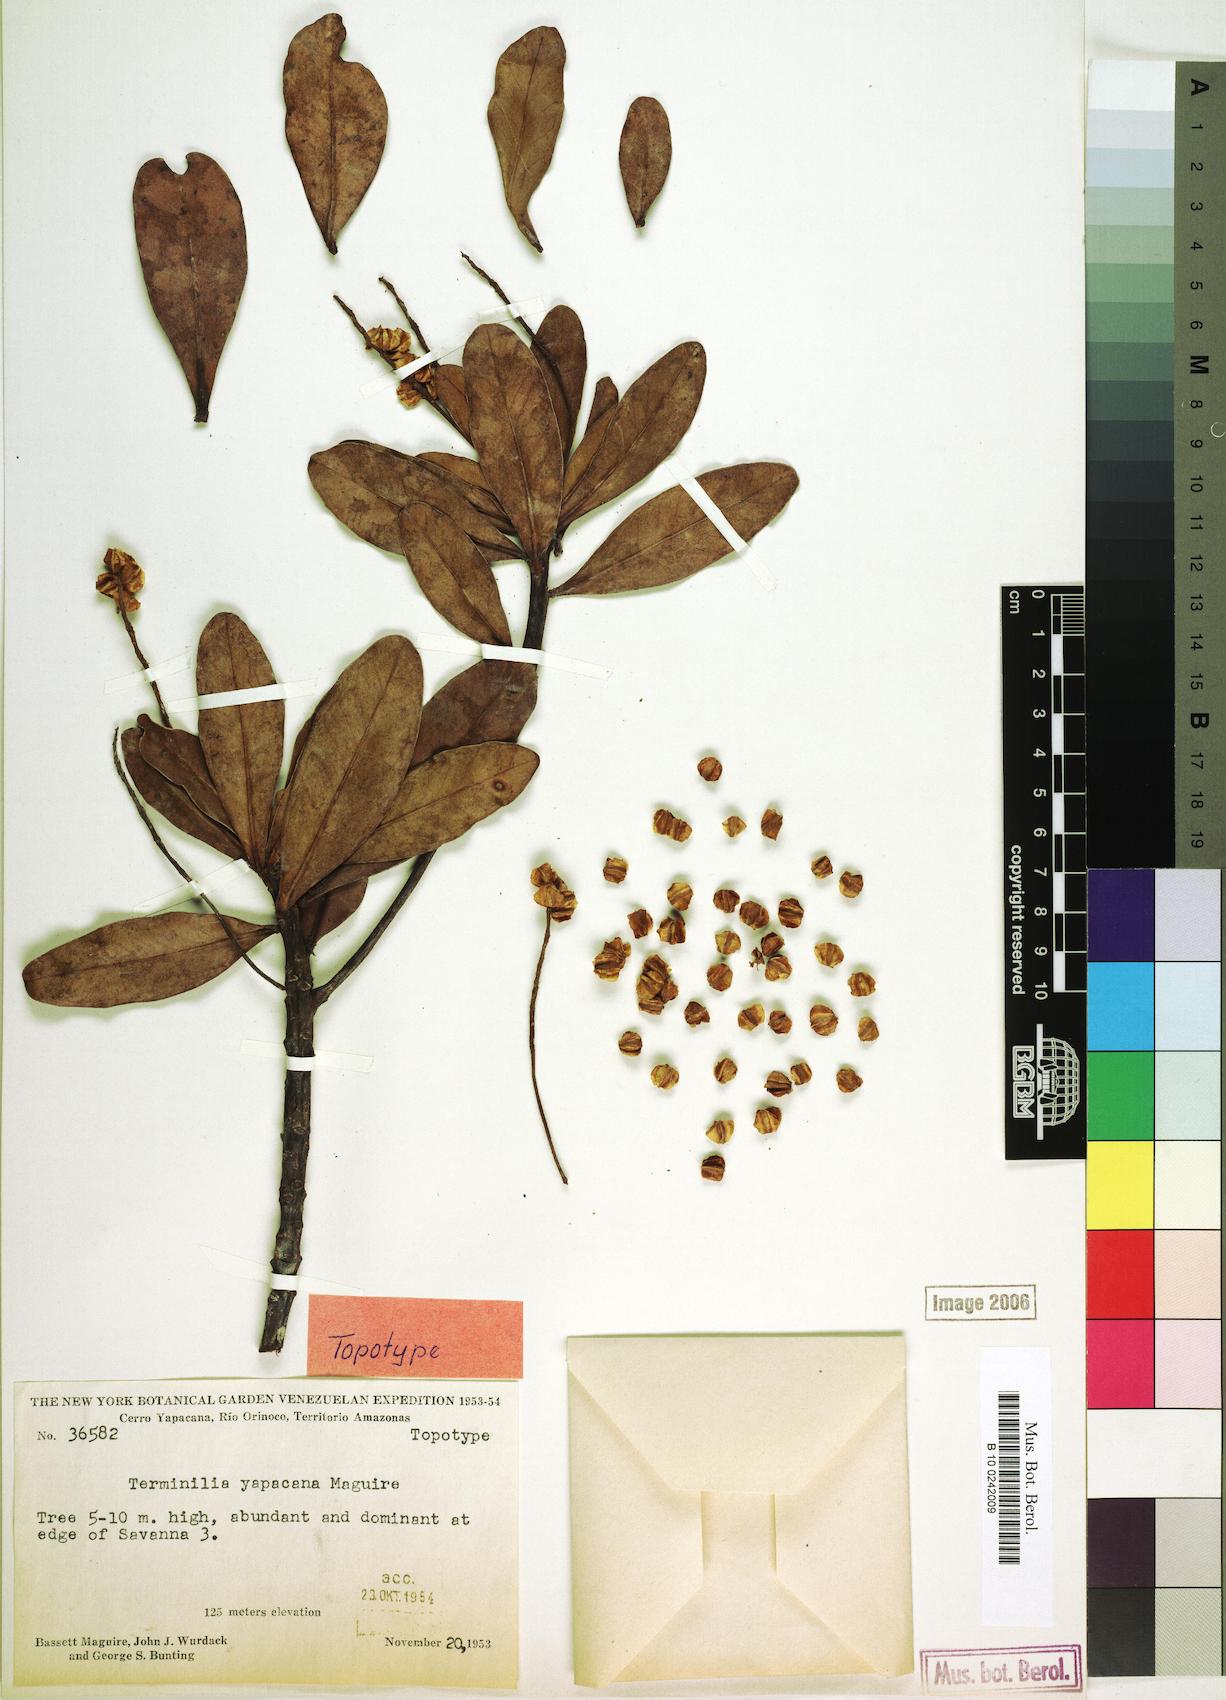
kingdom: Plantae
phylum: Tracheophyta
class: Magnoliopsida
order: Myrtales
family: Combretaceae
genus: Terminalia
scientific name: Terminalia yapacana
